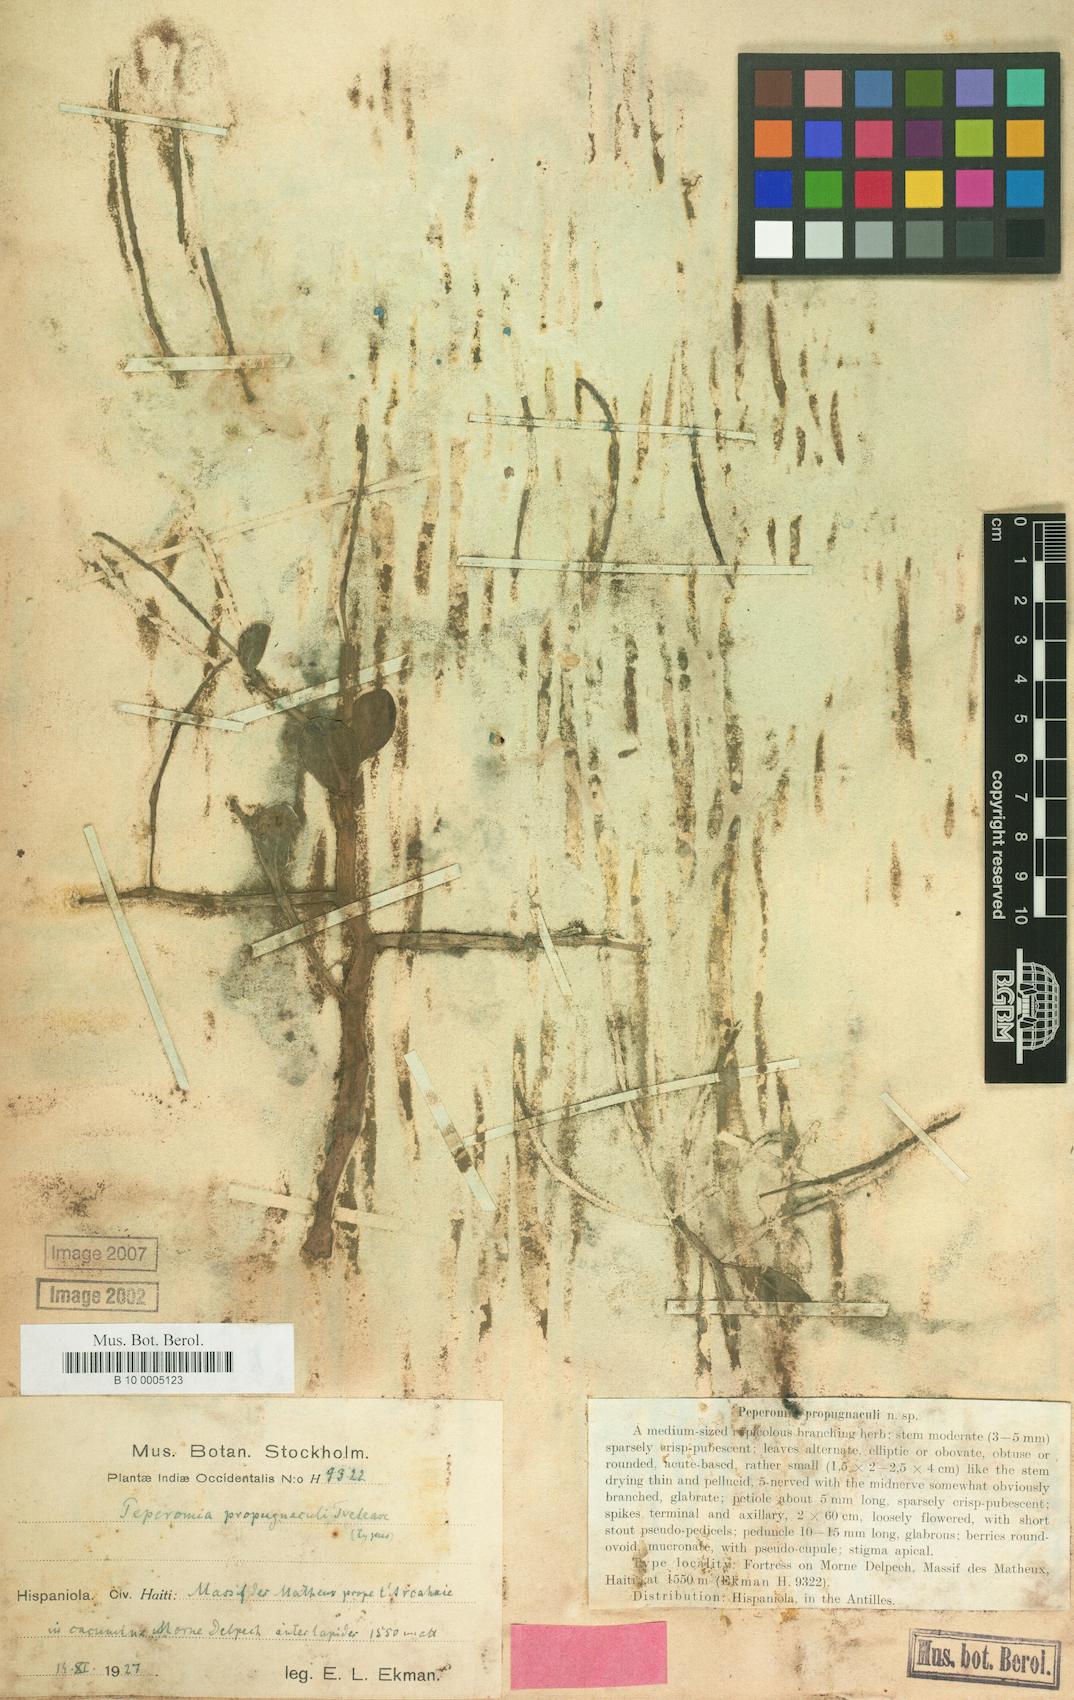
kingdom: Plantae
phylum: Tracheophyta
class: Magnoliopsida
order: Piperales
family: Piperaceae
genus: Peperomia
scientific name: Peperomia propugnaculi
